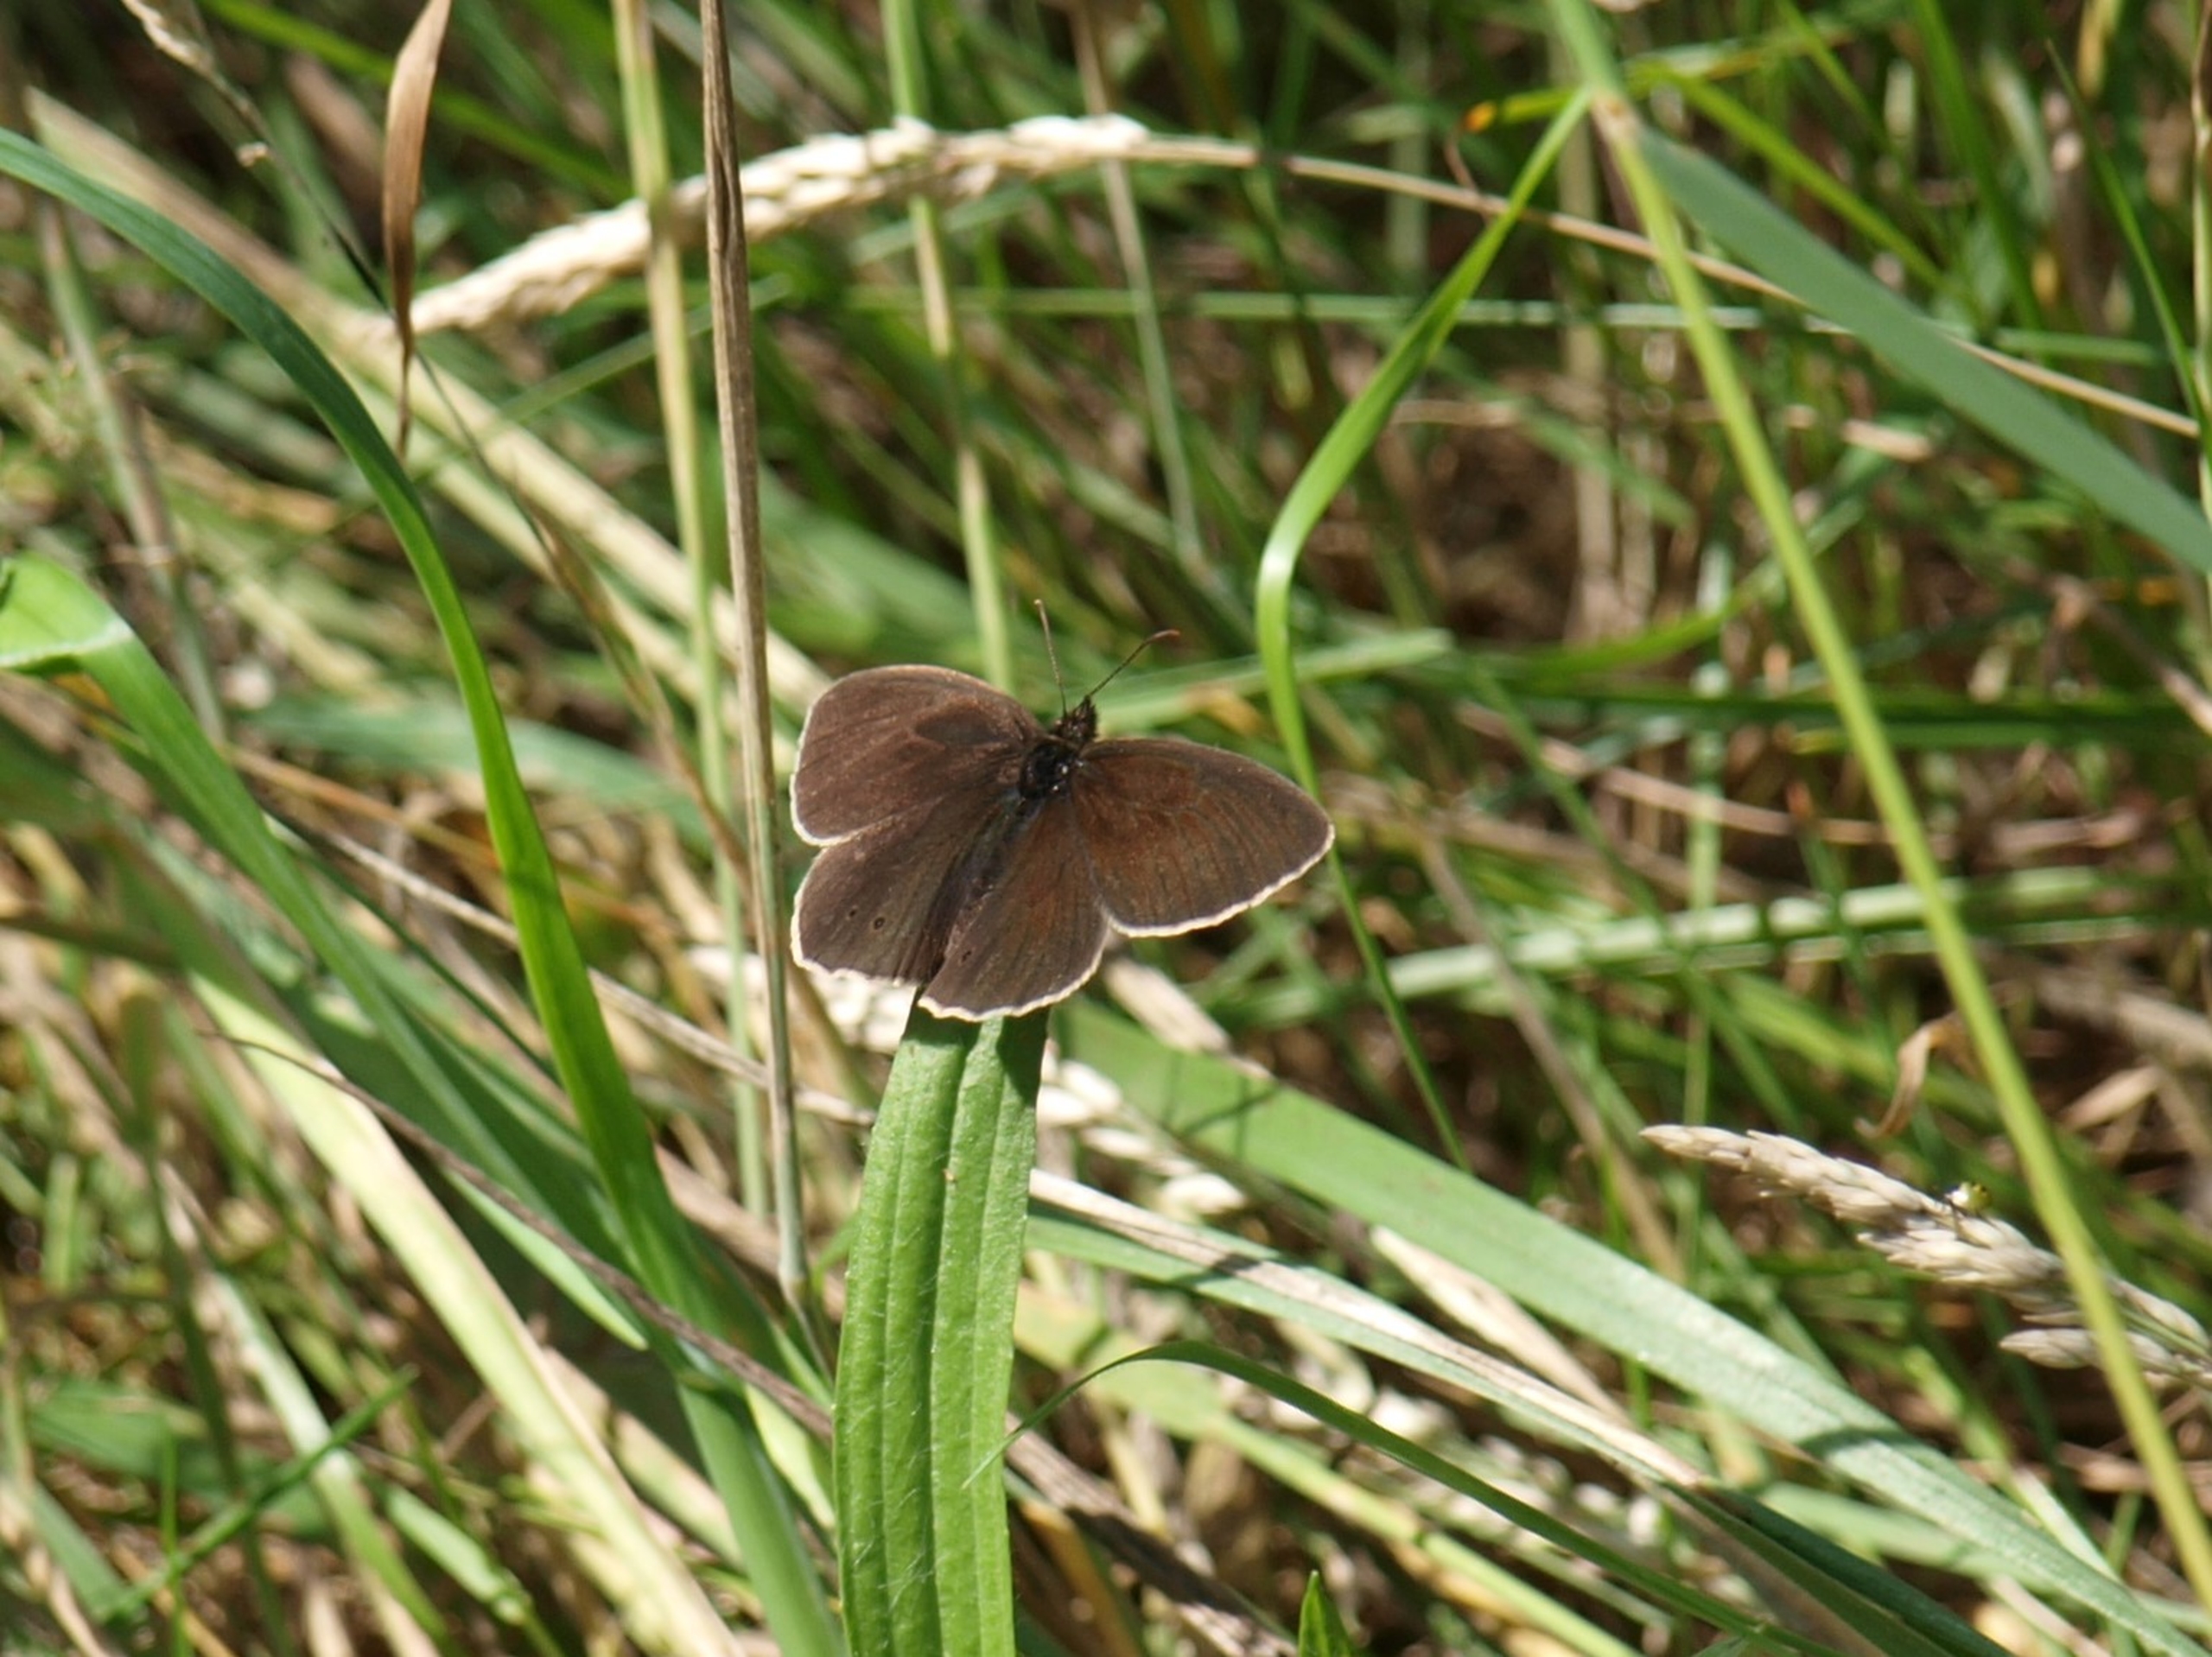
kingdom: Animalia
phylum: Arthropoda
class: Insecta
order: Lepidoptera
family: Nymphalidae
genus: Aphantopus
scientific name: Aphantopus hyperantus
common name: Engrandøje
